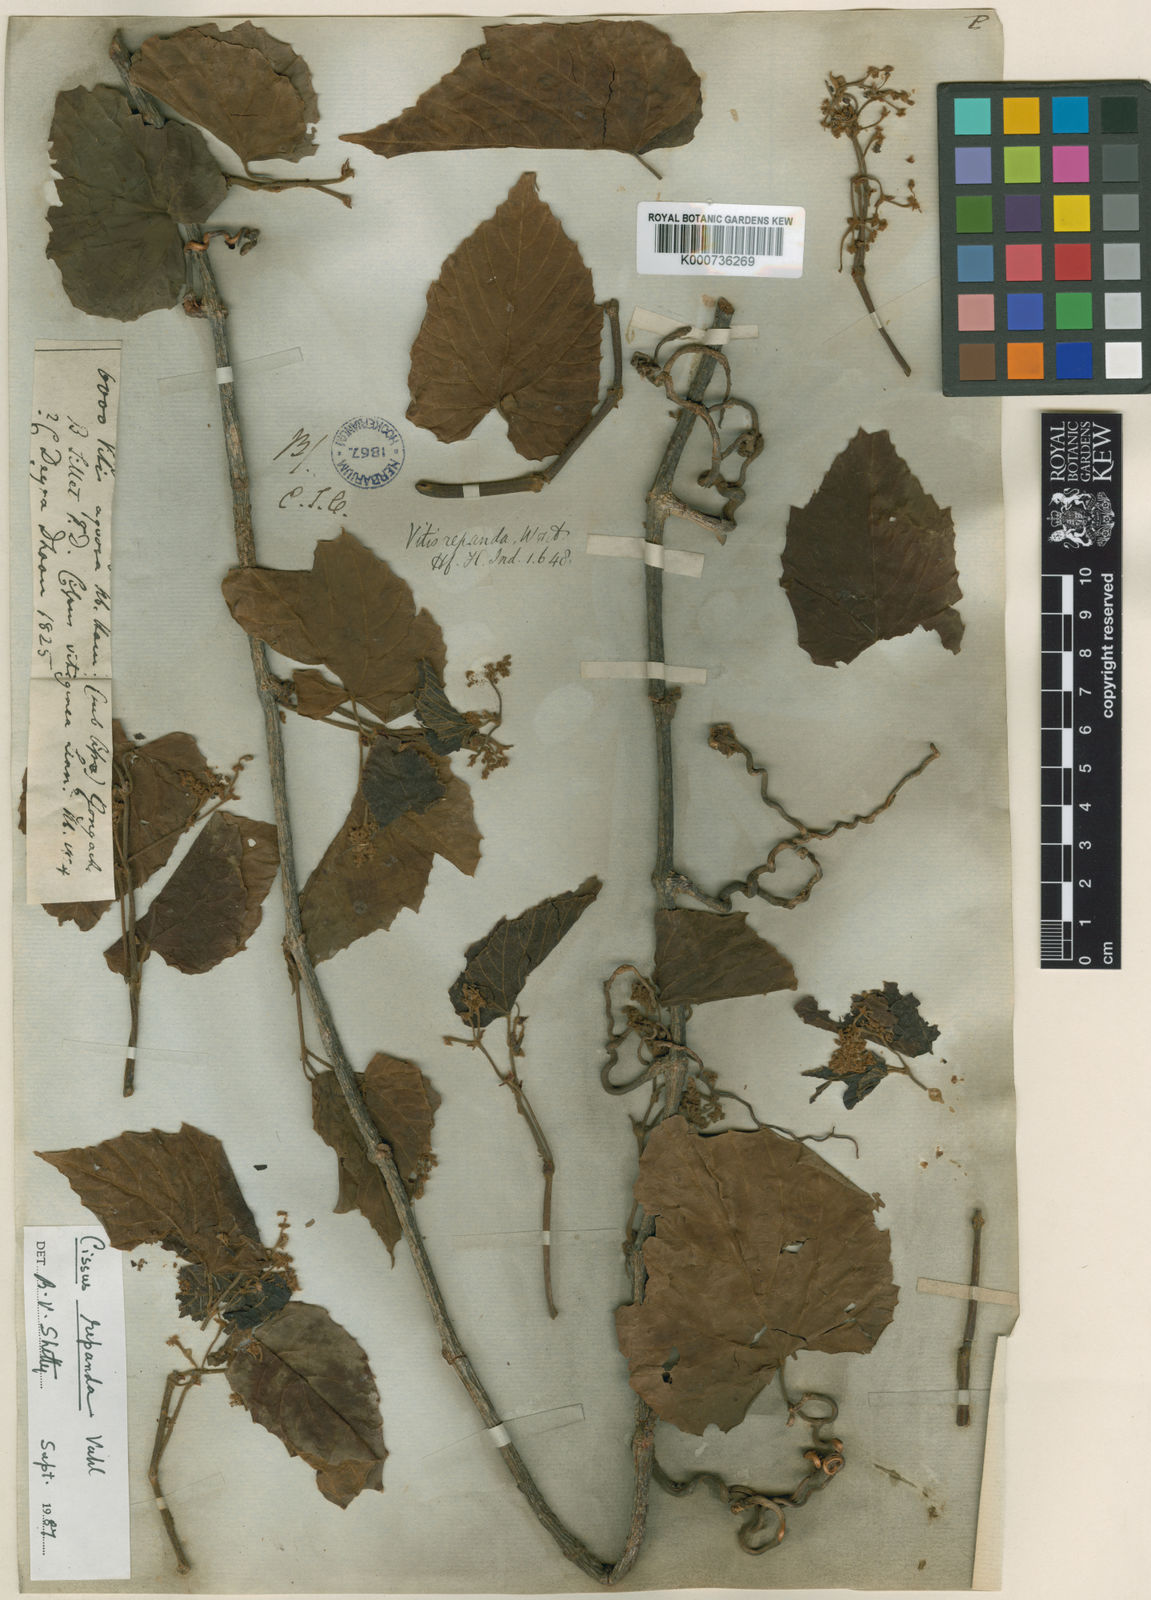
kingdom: Plantae
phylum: Tracheophyta
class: Magnoliopsida
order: Vitales
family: Vitaceae
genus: Cissus
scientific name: Cissus repanda
